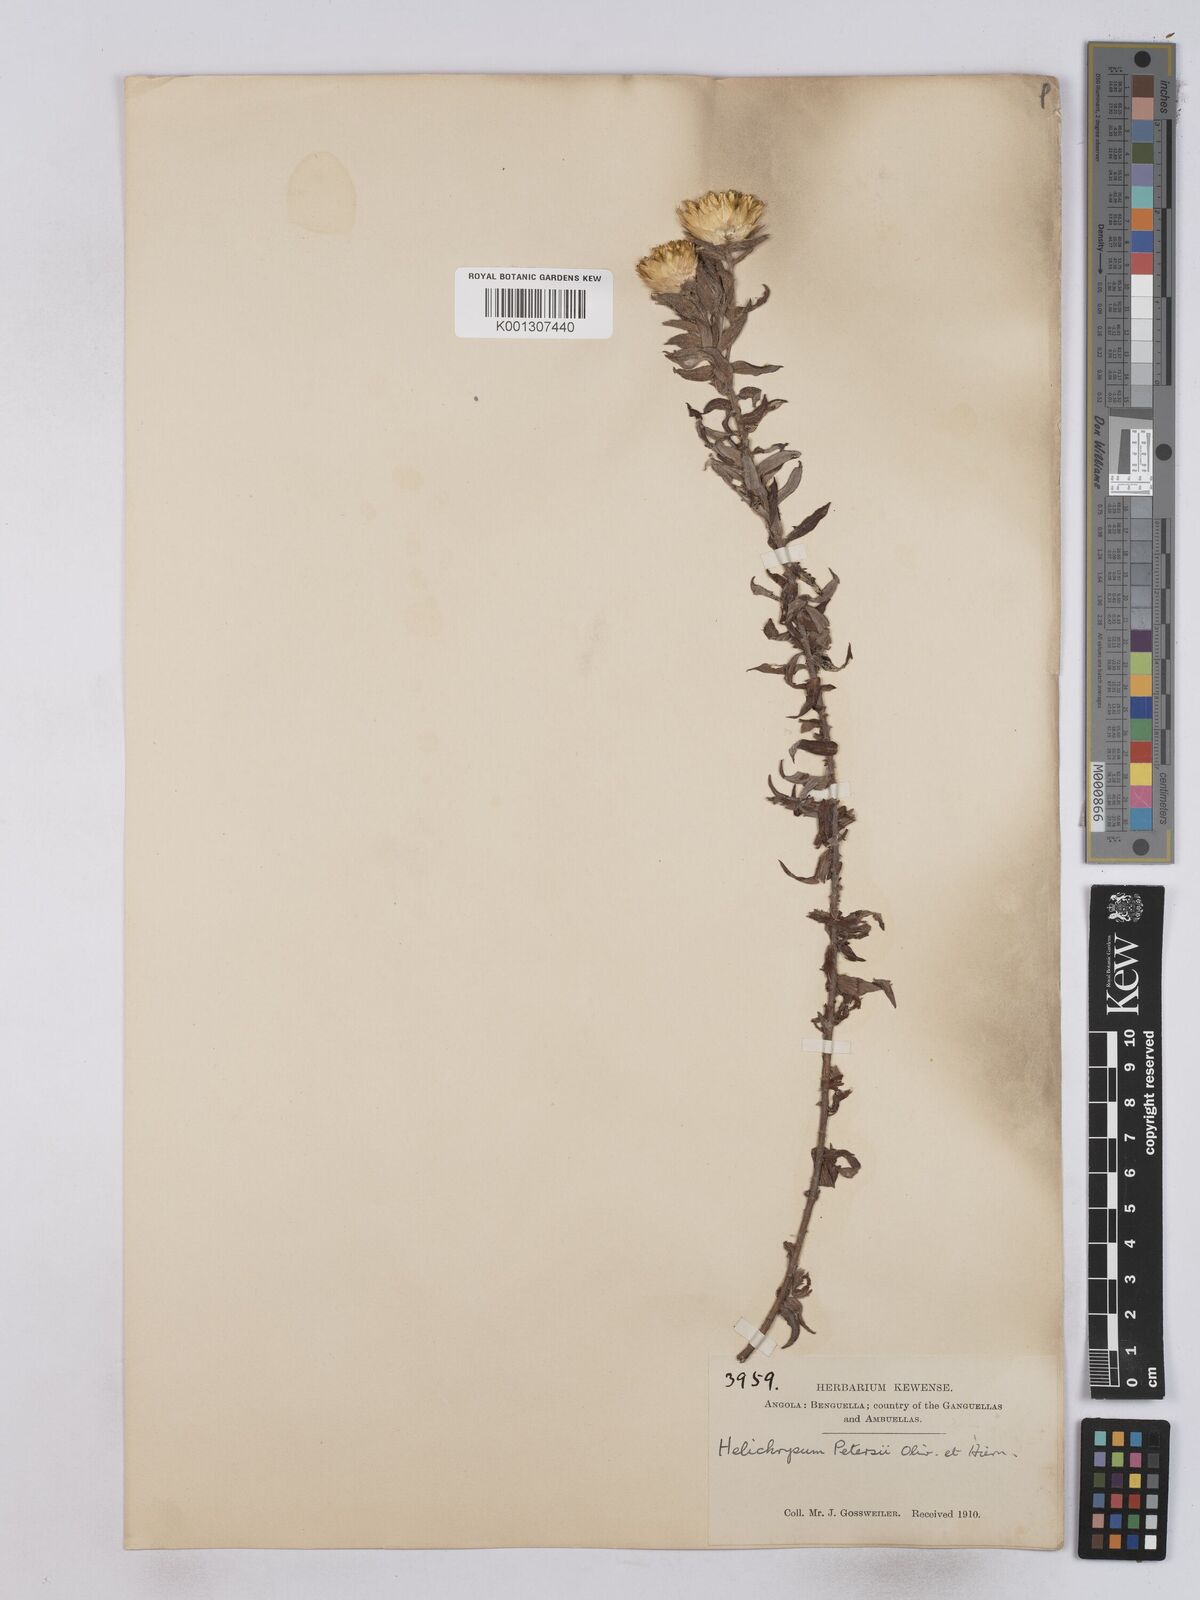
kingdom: Plantae
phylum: Tracheophyta
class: Magnoliopsida
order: Asterales
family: Asteraceae
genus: Helichrysum
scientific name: Helichrysum kirkii
